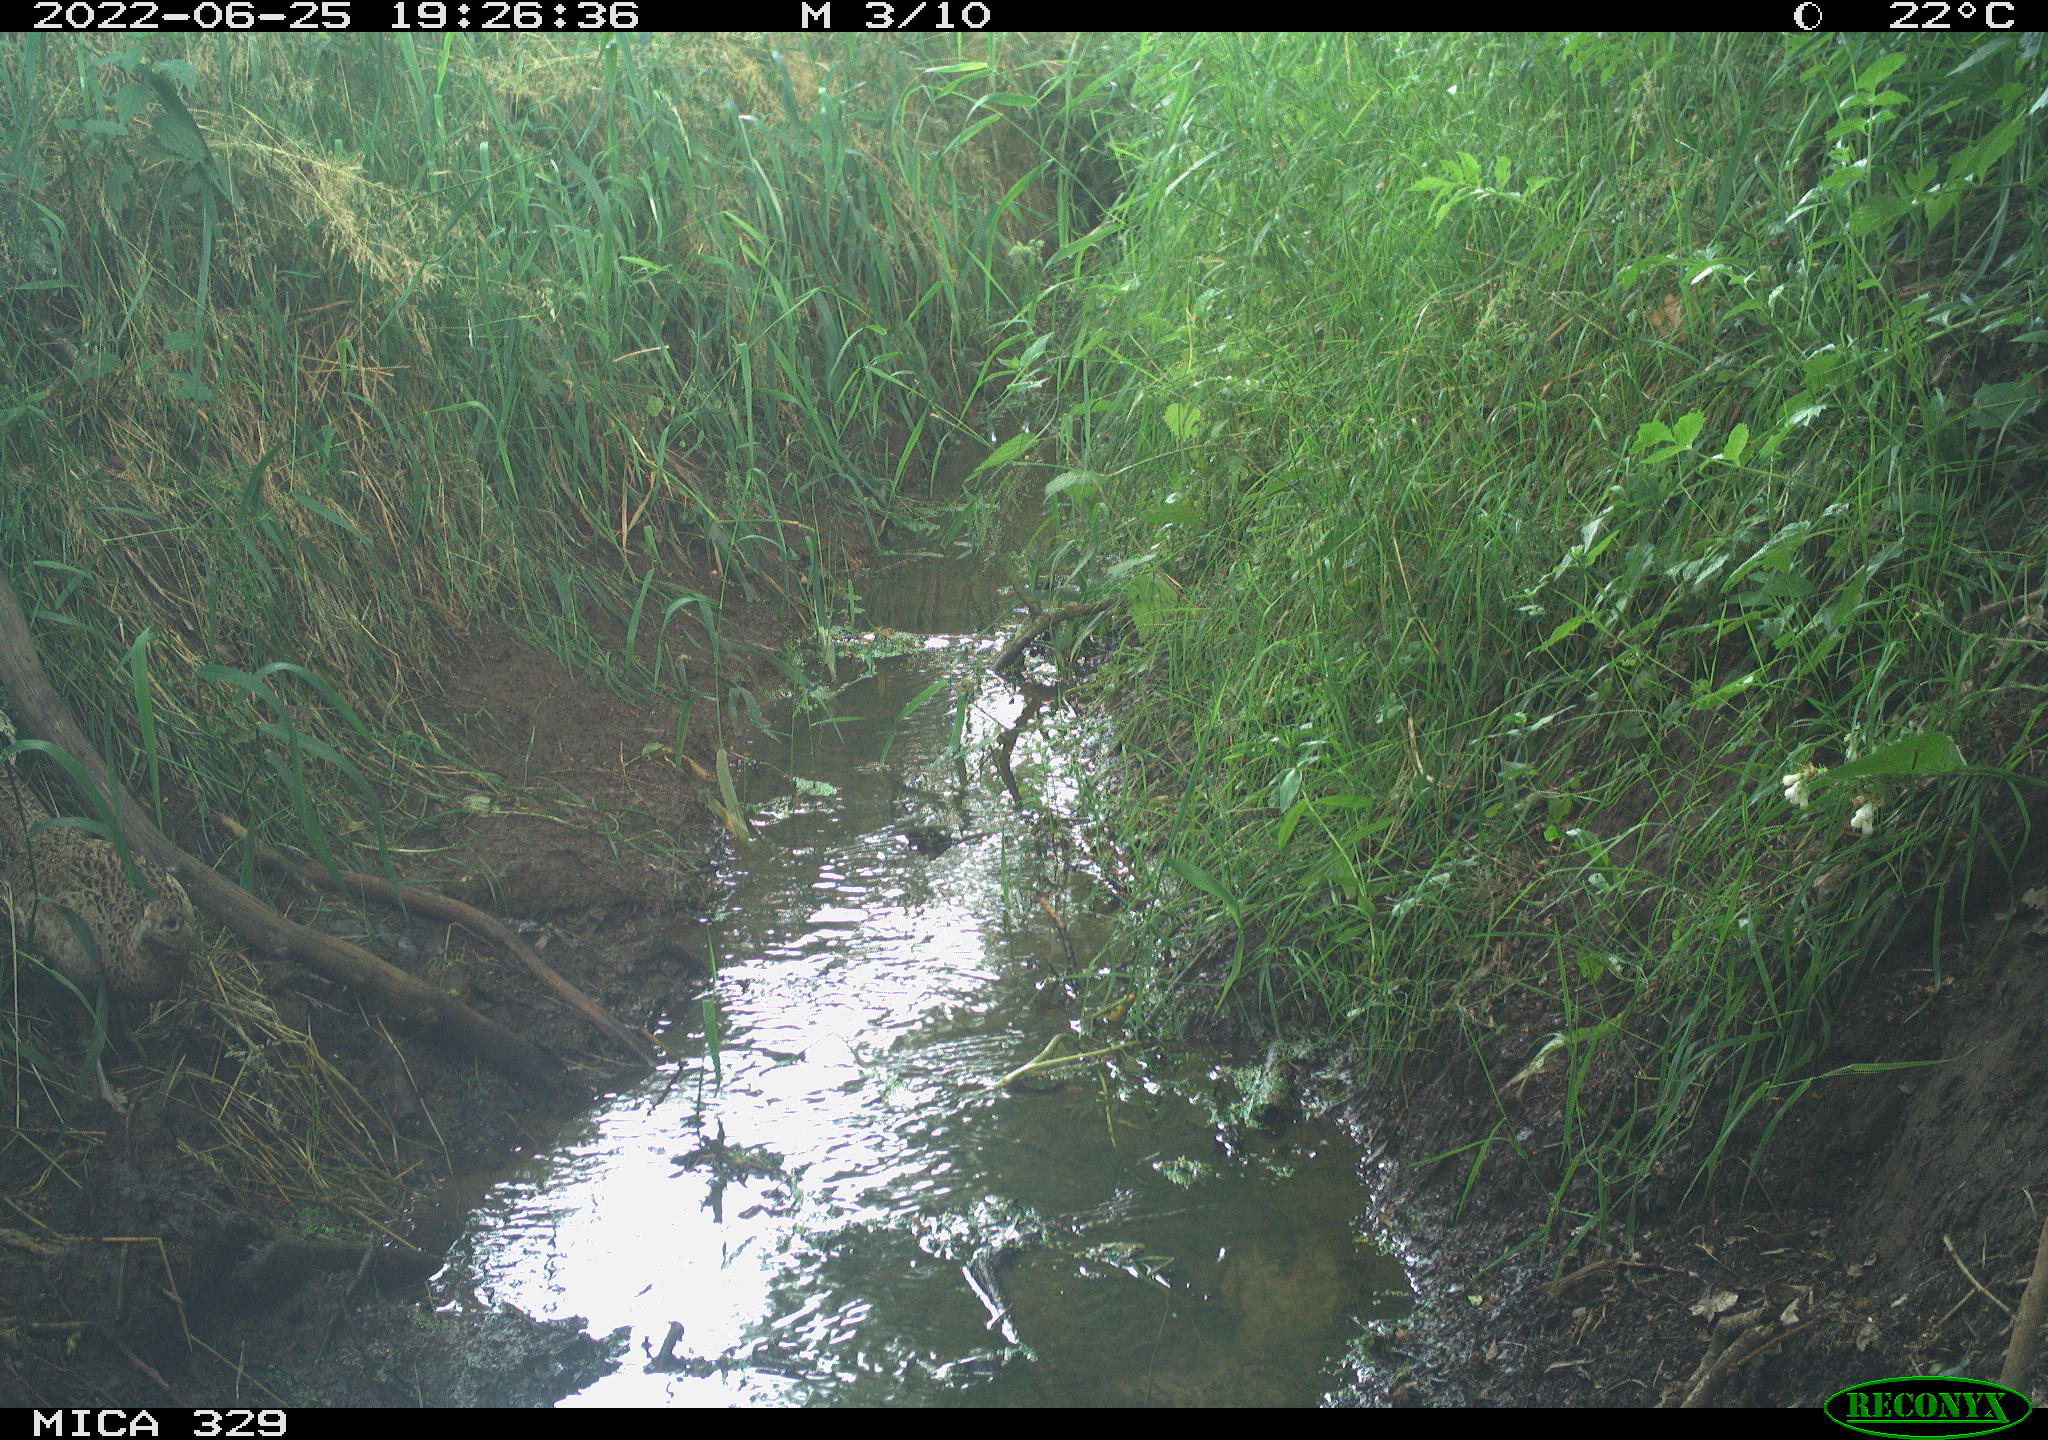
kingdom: Animalia
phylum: Chordata
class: Aves
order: Galliformes
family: Phasianidae
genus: Phasianus
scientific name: Phasianus colchicus
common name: Common pheasant
